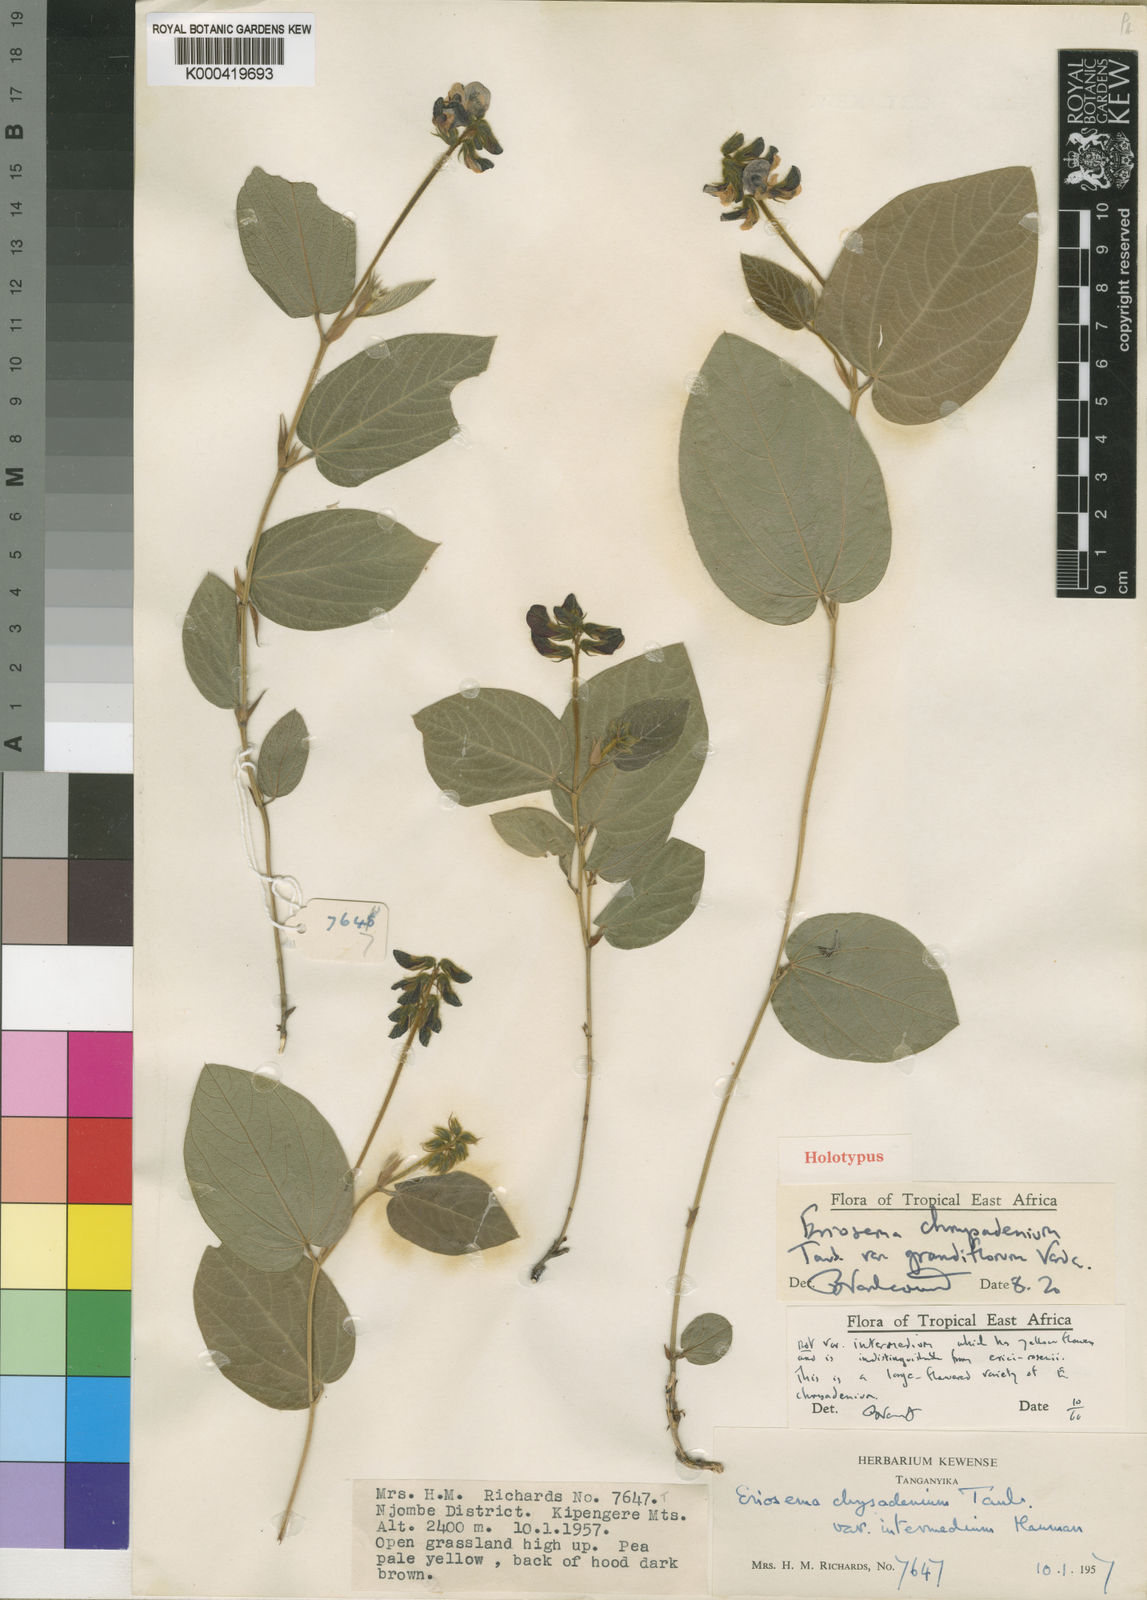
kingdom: Plantae
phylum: Tracheophyta
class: Magnoliopsida
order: Fabales
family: Fabaceae
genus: Eriosema
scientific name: Eriosema chrysadenium
